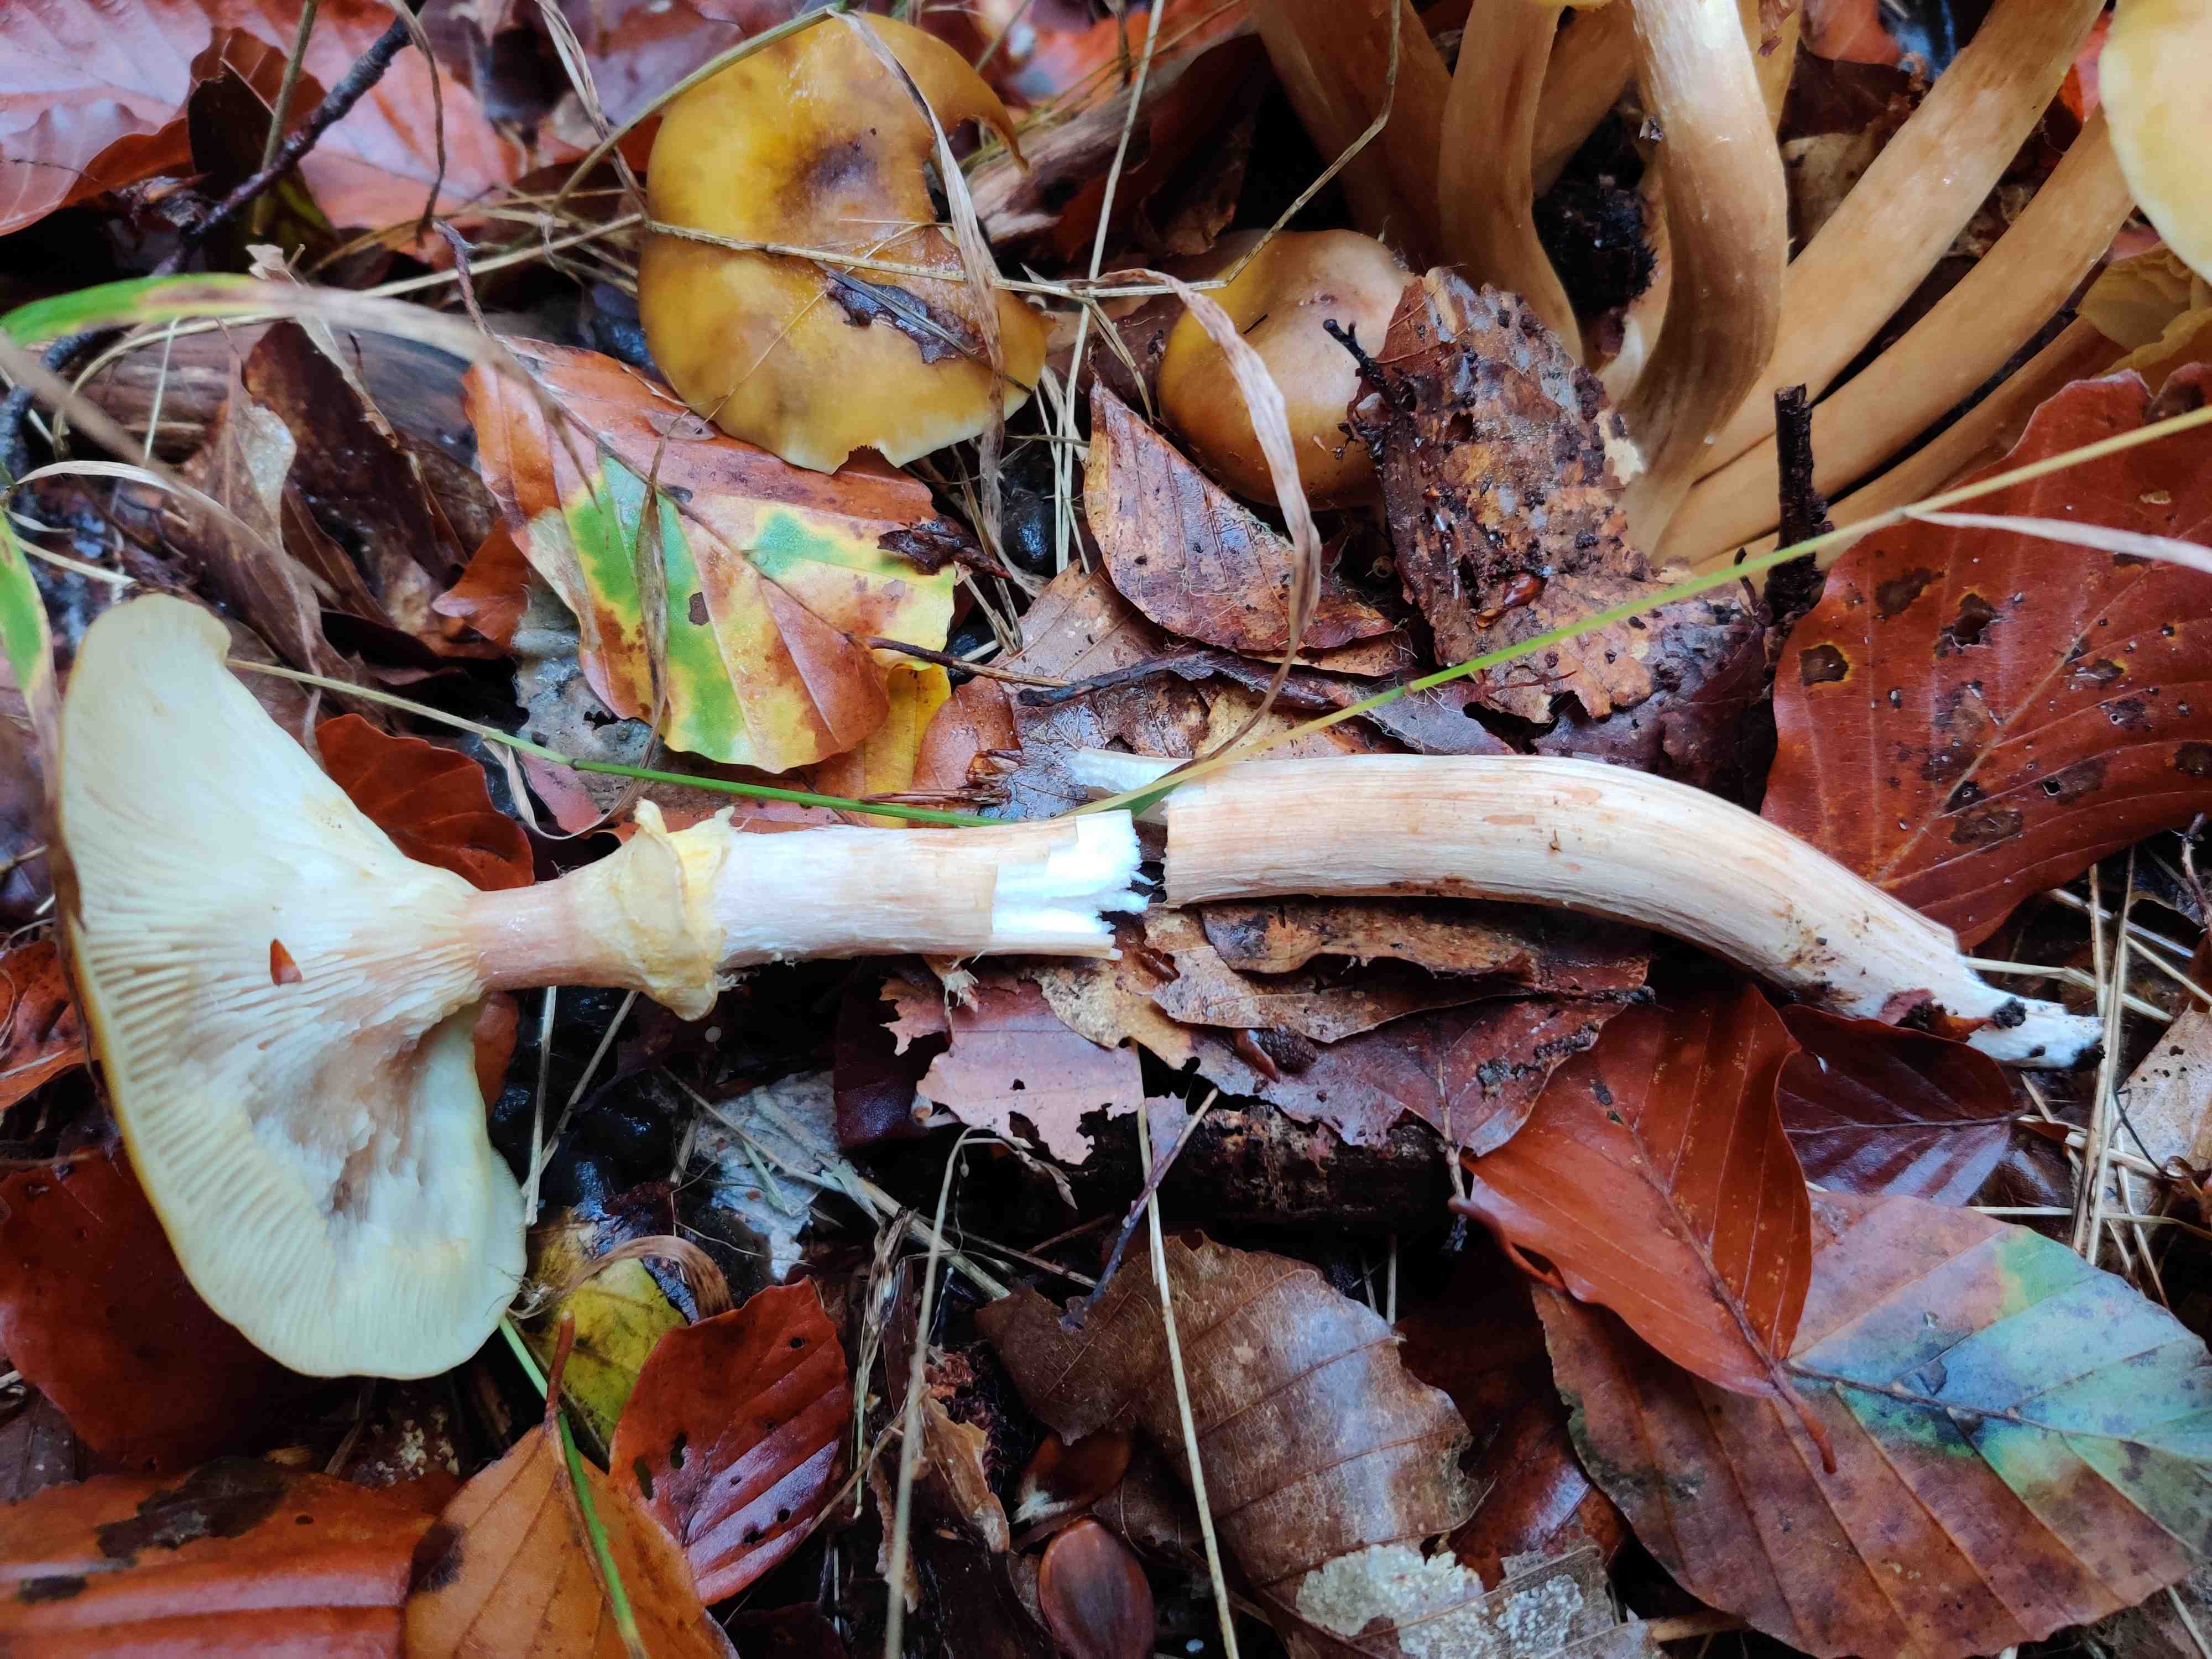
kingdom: Fungi
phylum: Basidiomycota
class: Agaricomycetes
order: Agaricales
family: Physalacriaceae
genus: Armillaria
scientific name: Armillaria mellea
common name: ægte honningsvamp
